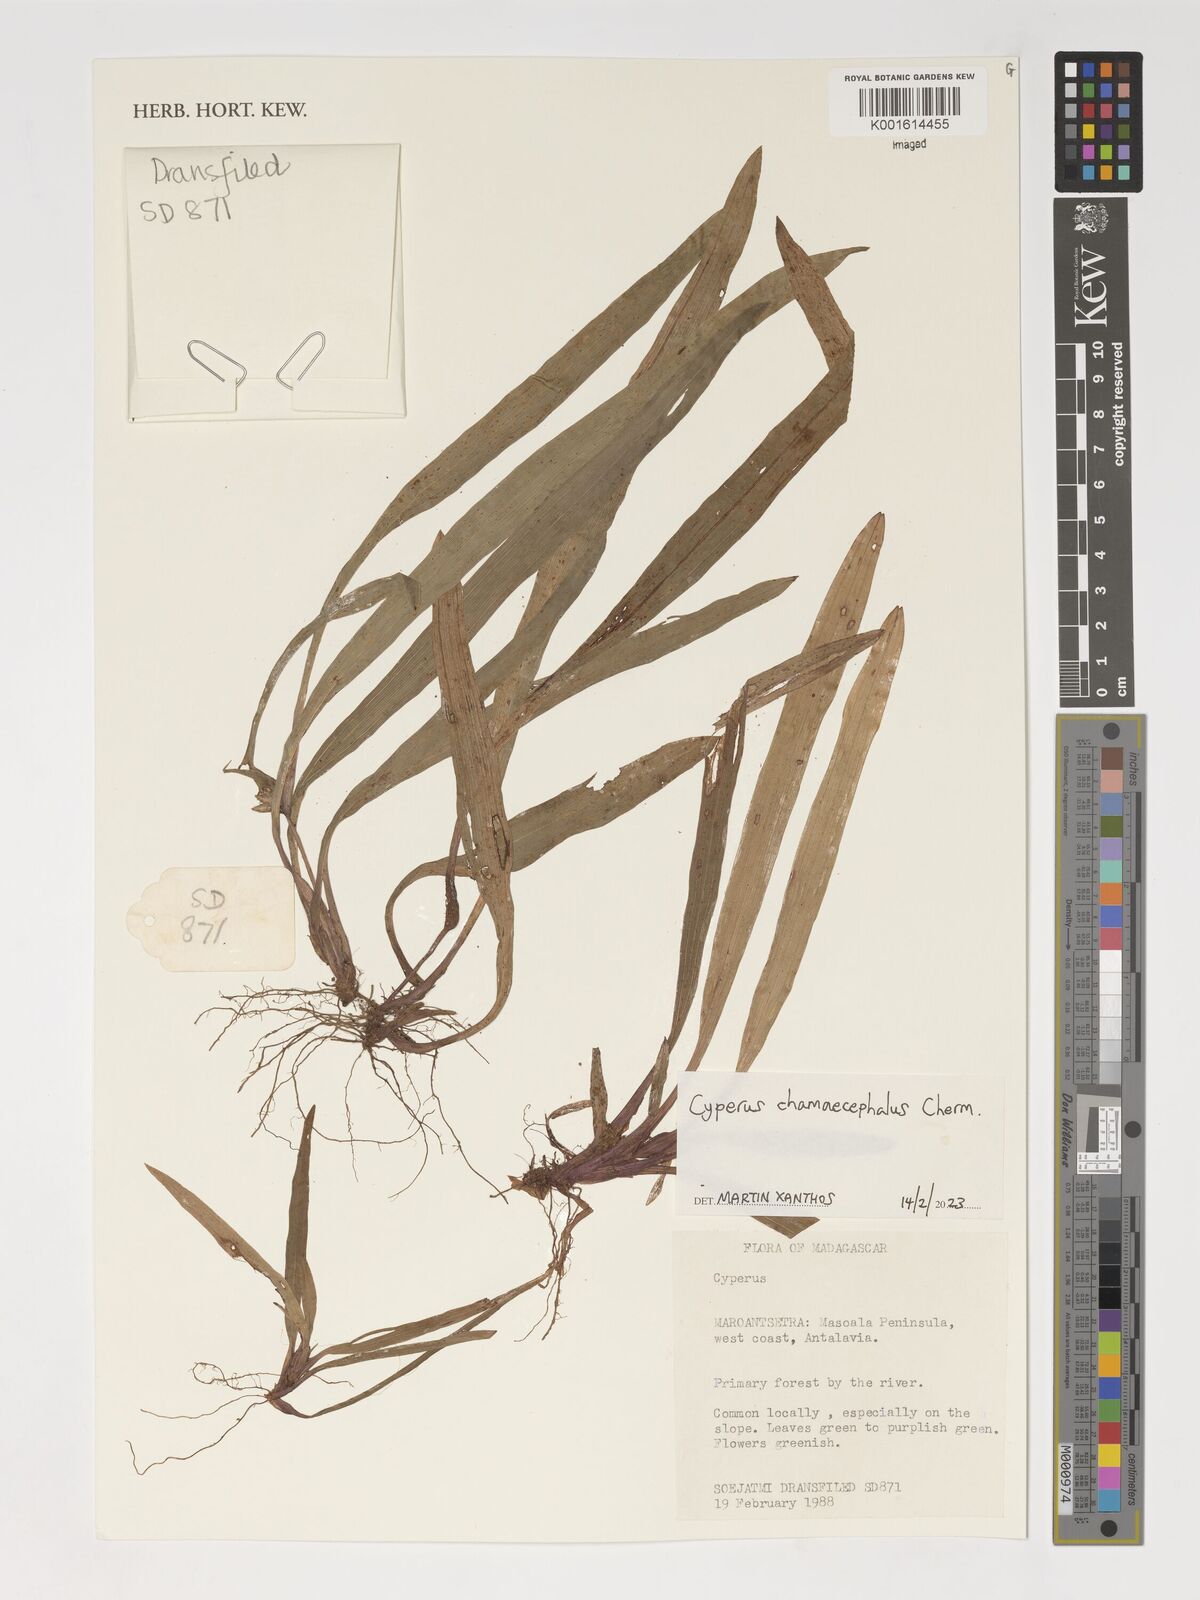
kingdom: Plantae
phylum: Tracheophyta
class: Liliopsida
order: Poales
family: Cyperaceae
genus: Cyperus
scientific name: Cyperus chamaecephalus
